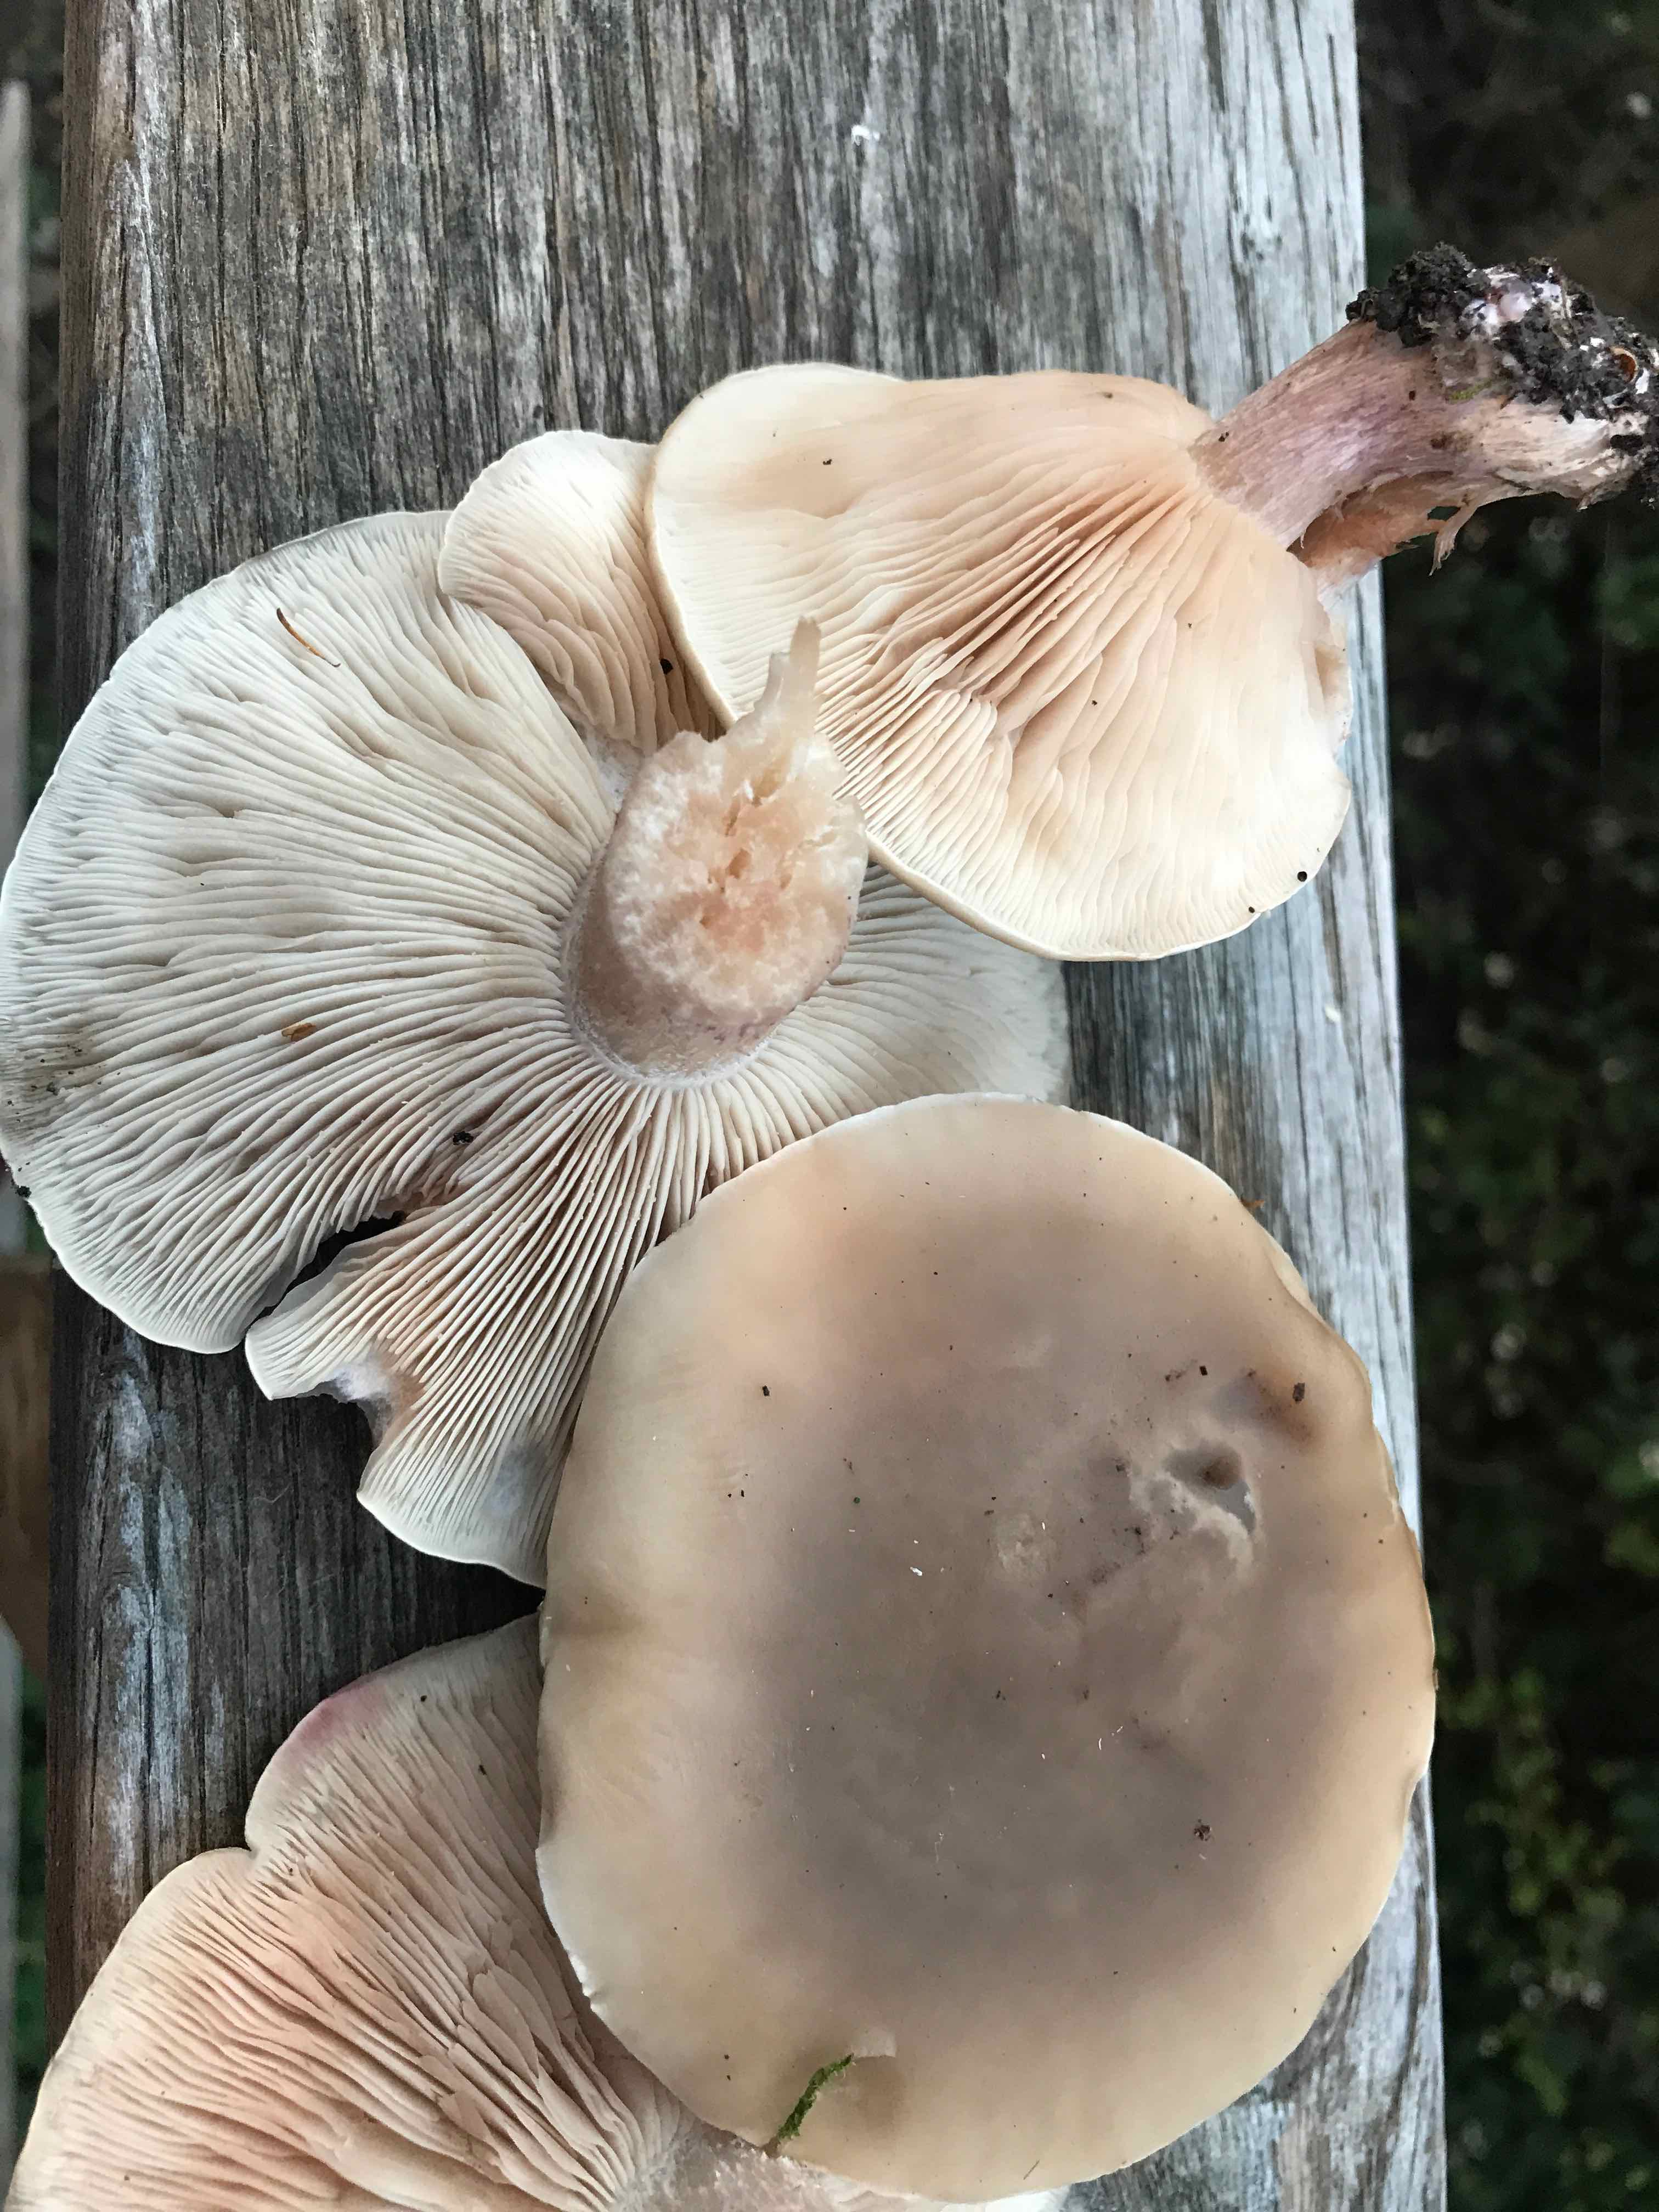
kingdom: Fungi
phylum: Basidiomycota
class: Agaricomycetes
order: Agaricales
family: Tricholomataceae
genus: Lepista
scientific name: Lepista personata
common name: bleg hekseringshat
